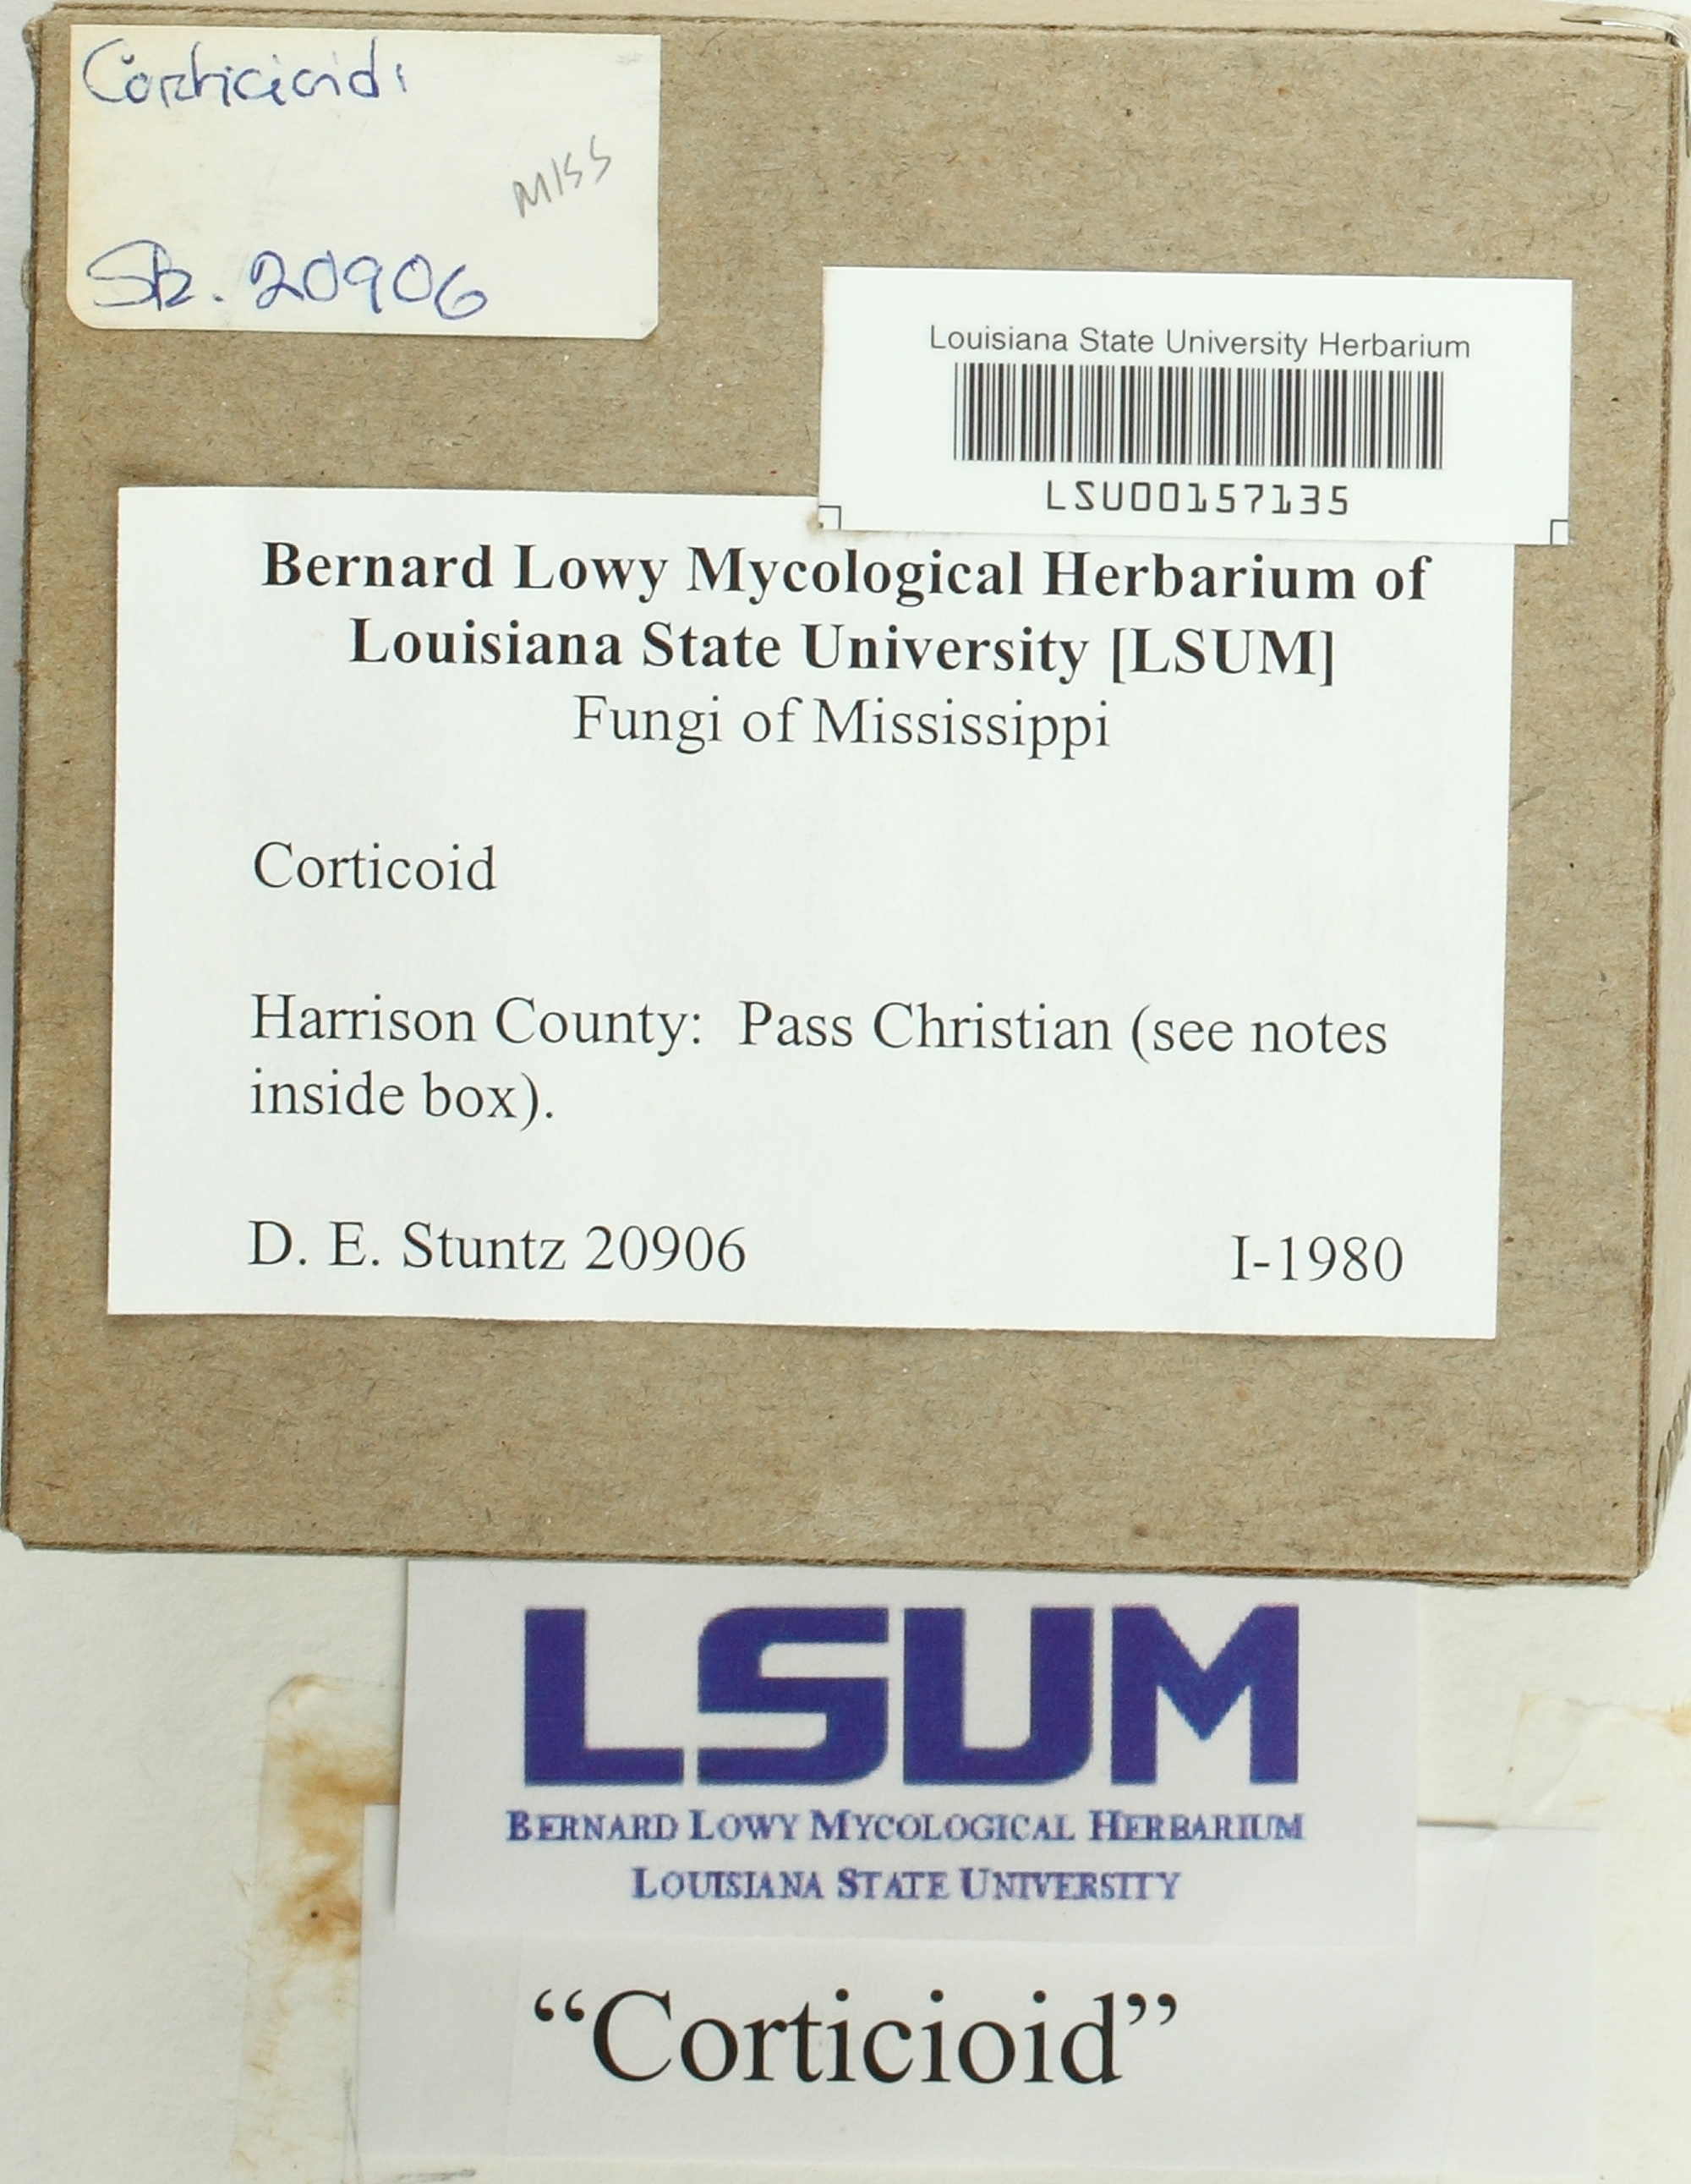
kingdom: Fungi
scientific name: Fungi
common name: Fungi
